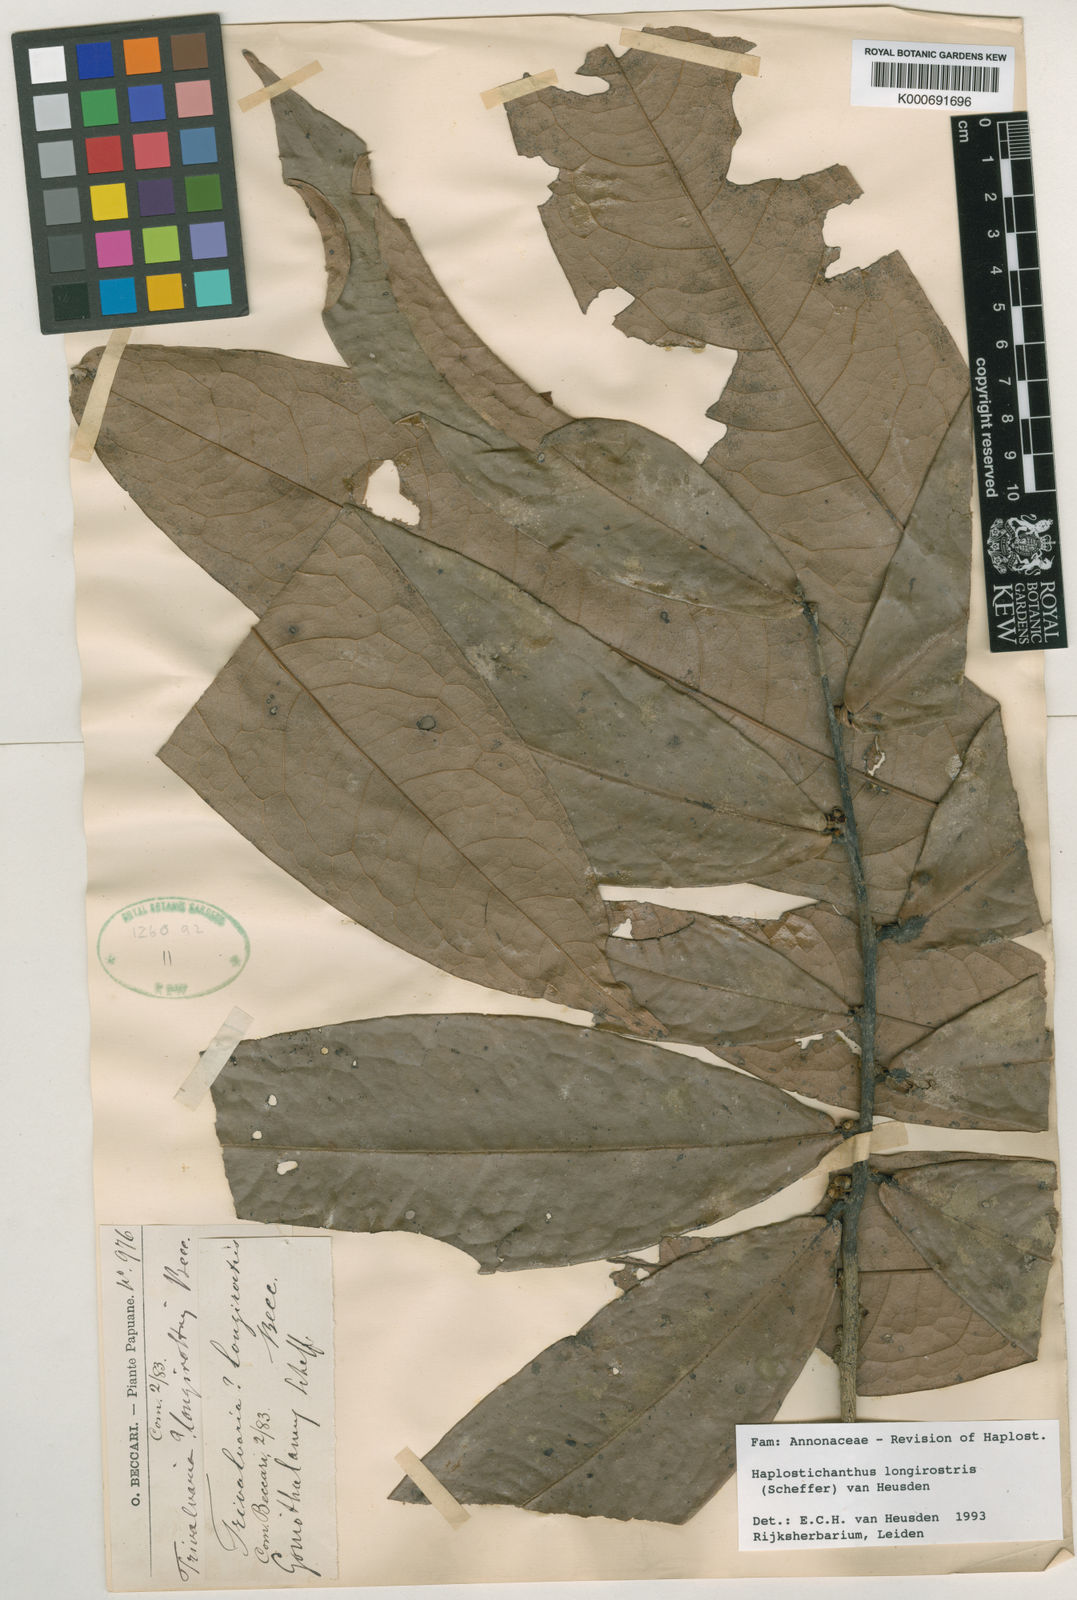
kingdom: Plantae
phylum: Tracheophyta
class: Magnoliopsida
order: Magnoliales
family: Annonaceae
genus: Haplostichanthus
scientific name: Haplostichanthus longirostris
